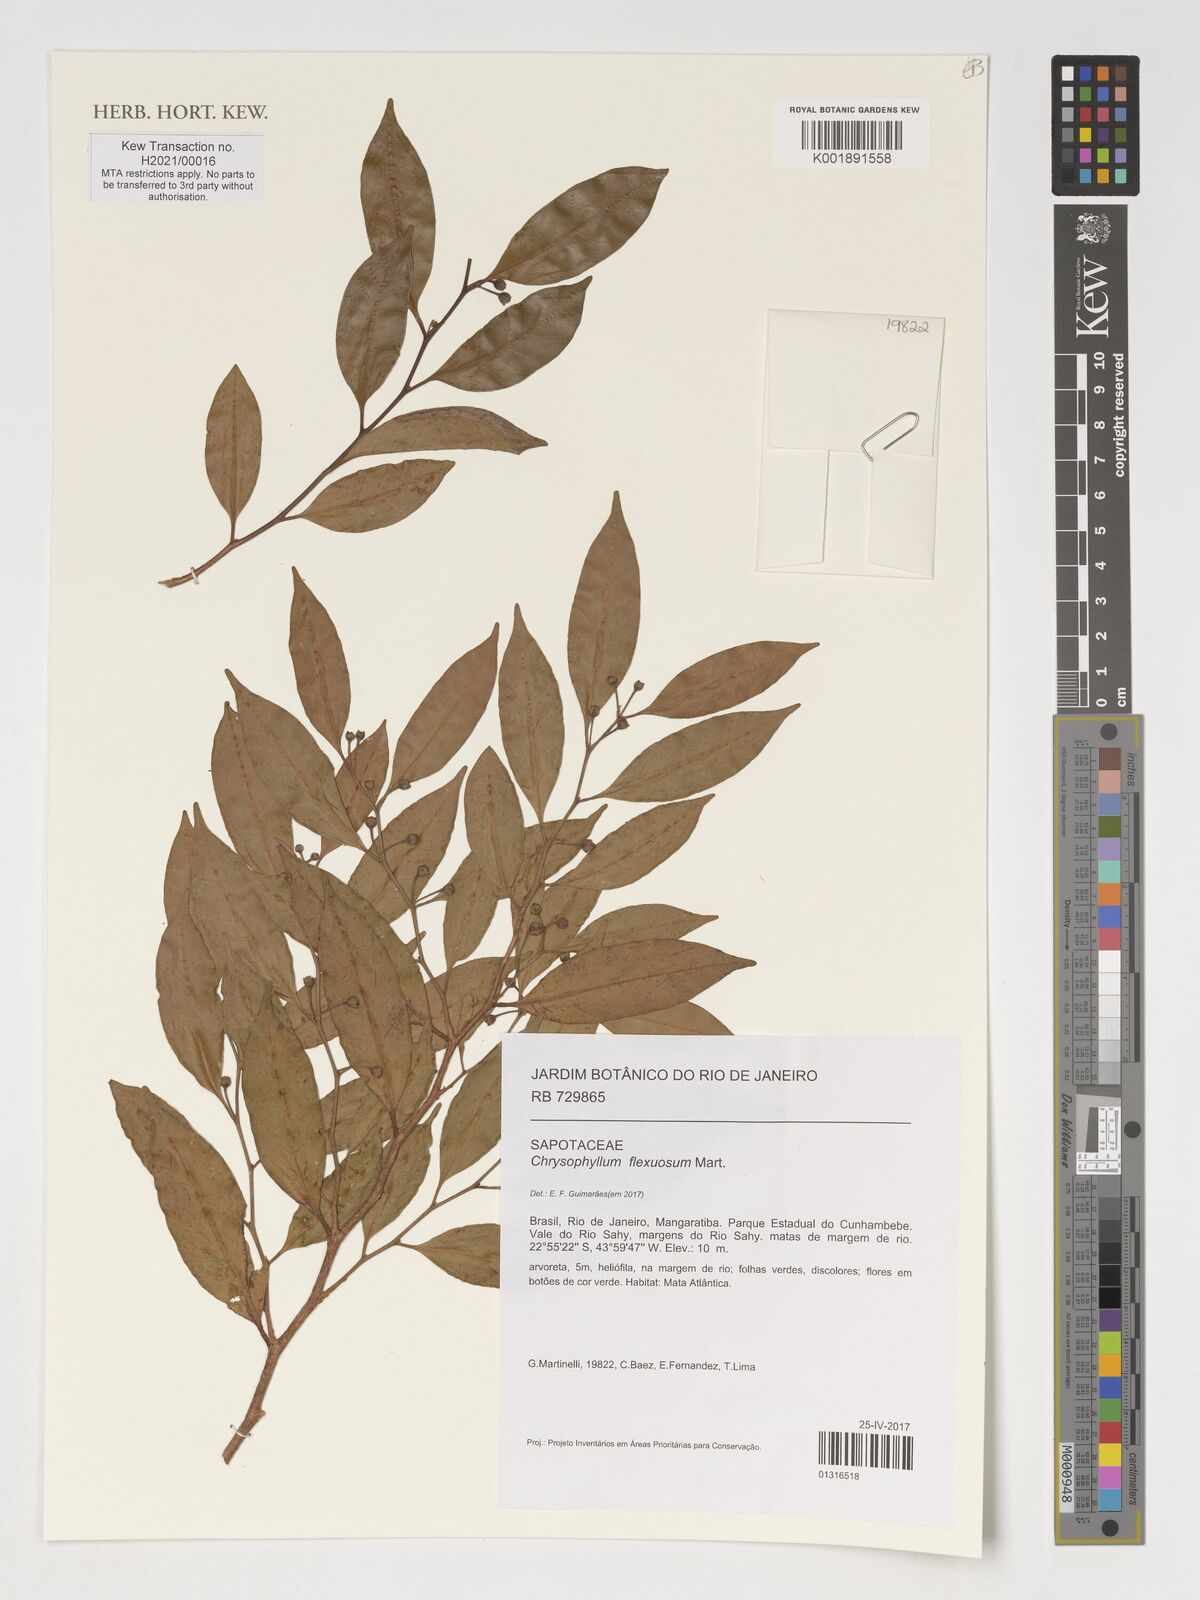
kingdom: Plantae
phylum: Tracheophyta
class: Magnoliopsida
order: Ericales
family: Sapotaceae
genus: Chrysophyllum
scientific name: Chrysophyllum flexuosum
